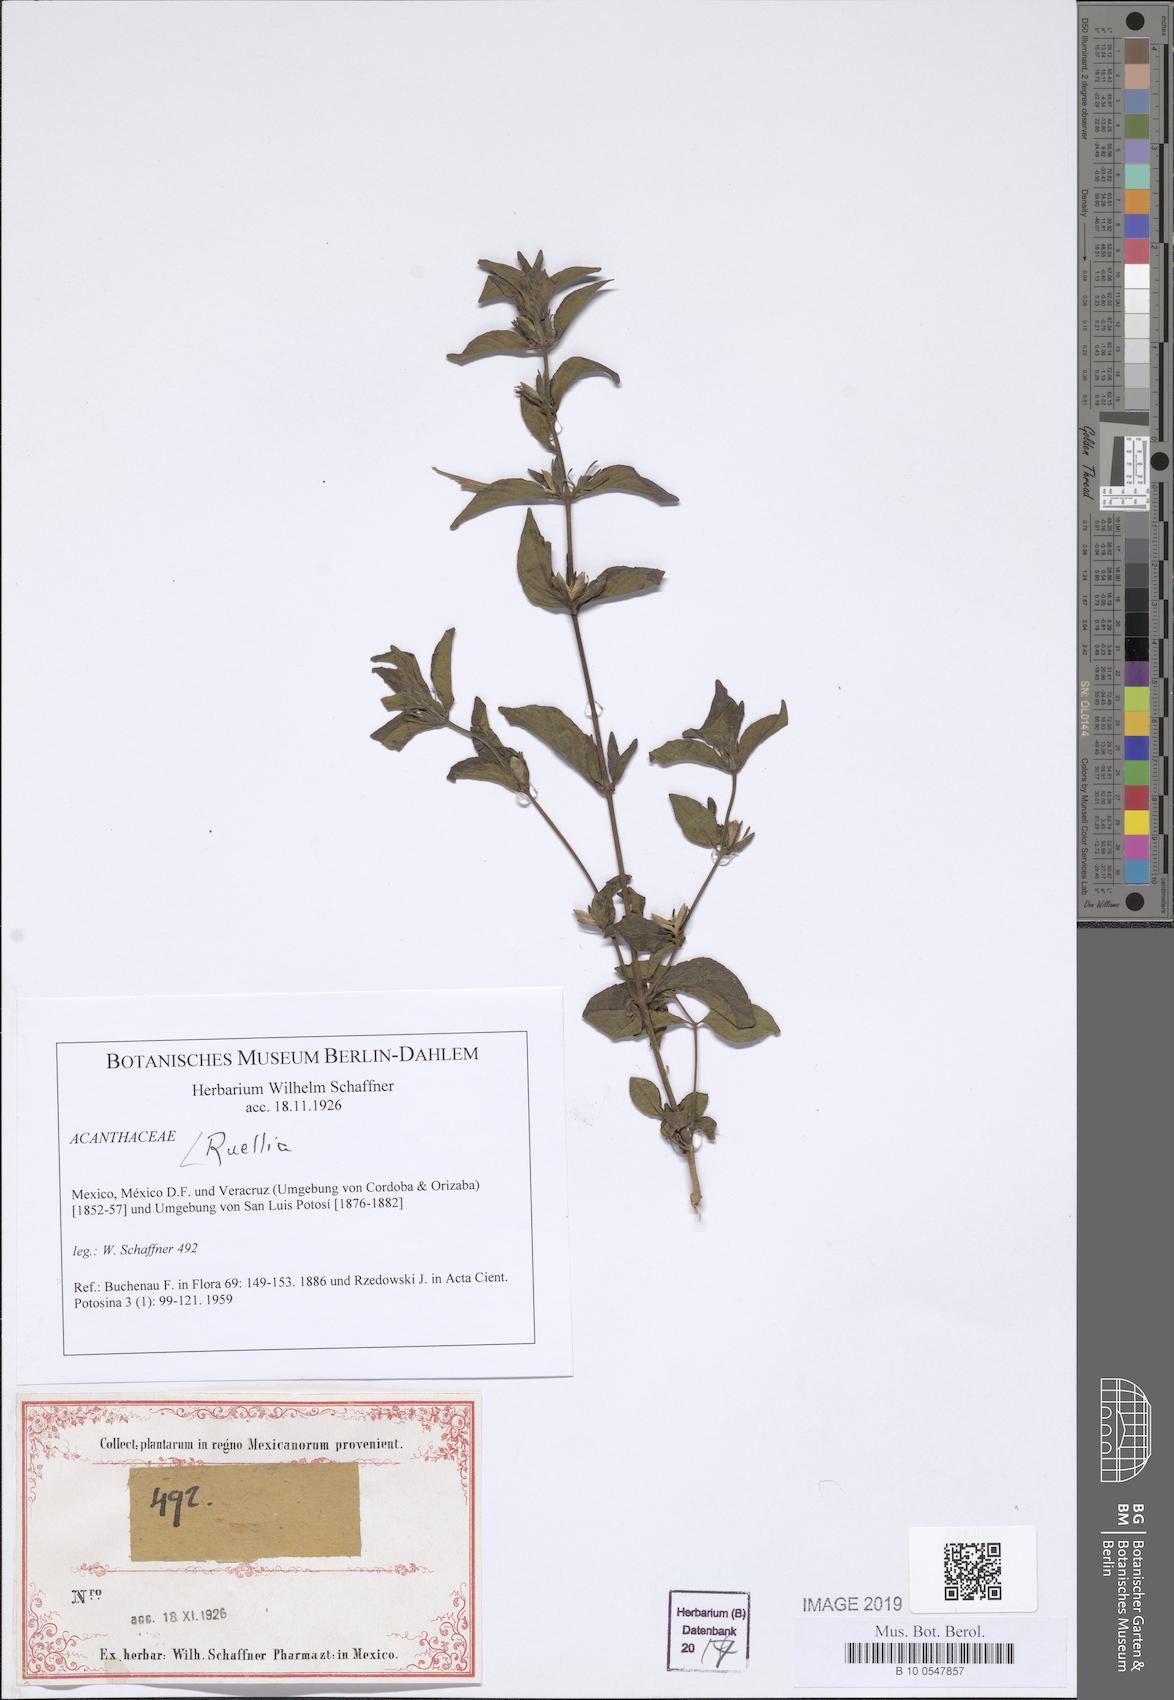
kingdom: Plantae
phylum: Tracheophyta
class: Magnoliopsida
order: Lamiales
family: Acanthaceae
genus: Ruellia
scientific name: Ruellia
